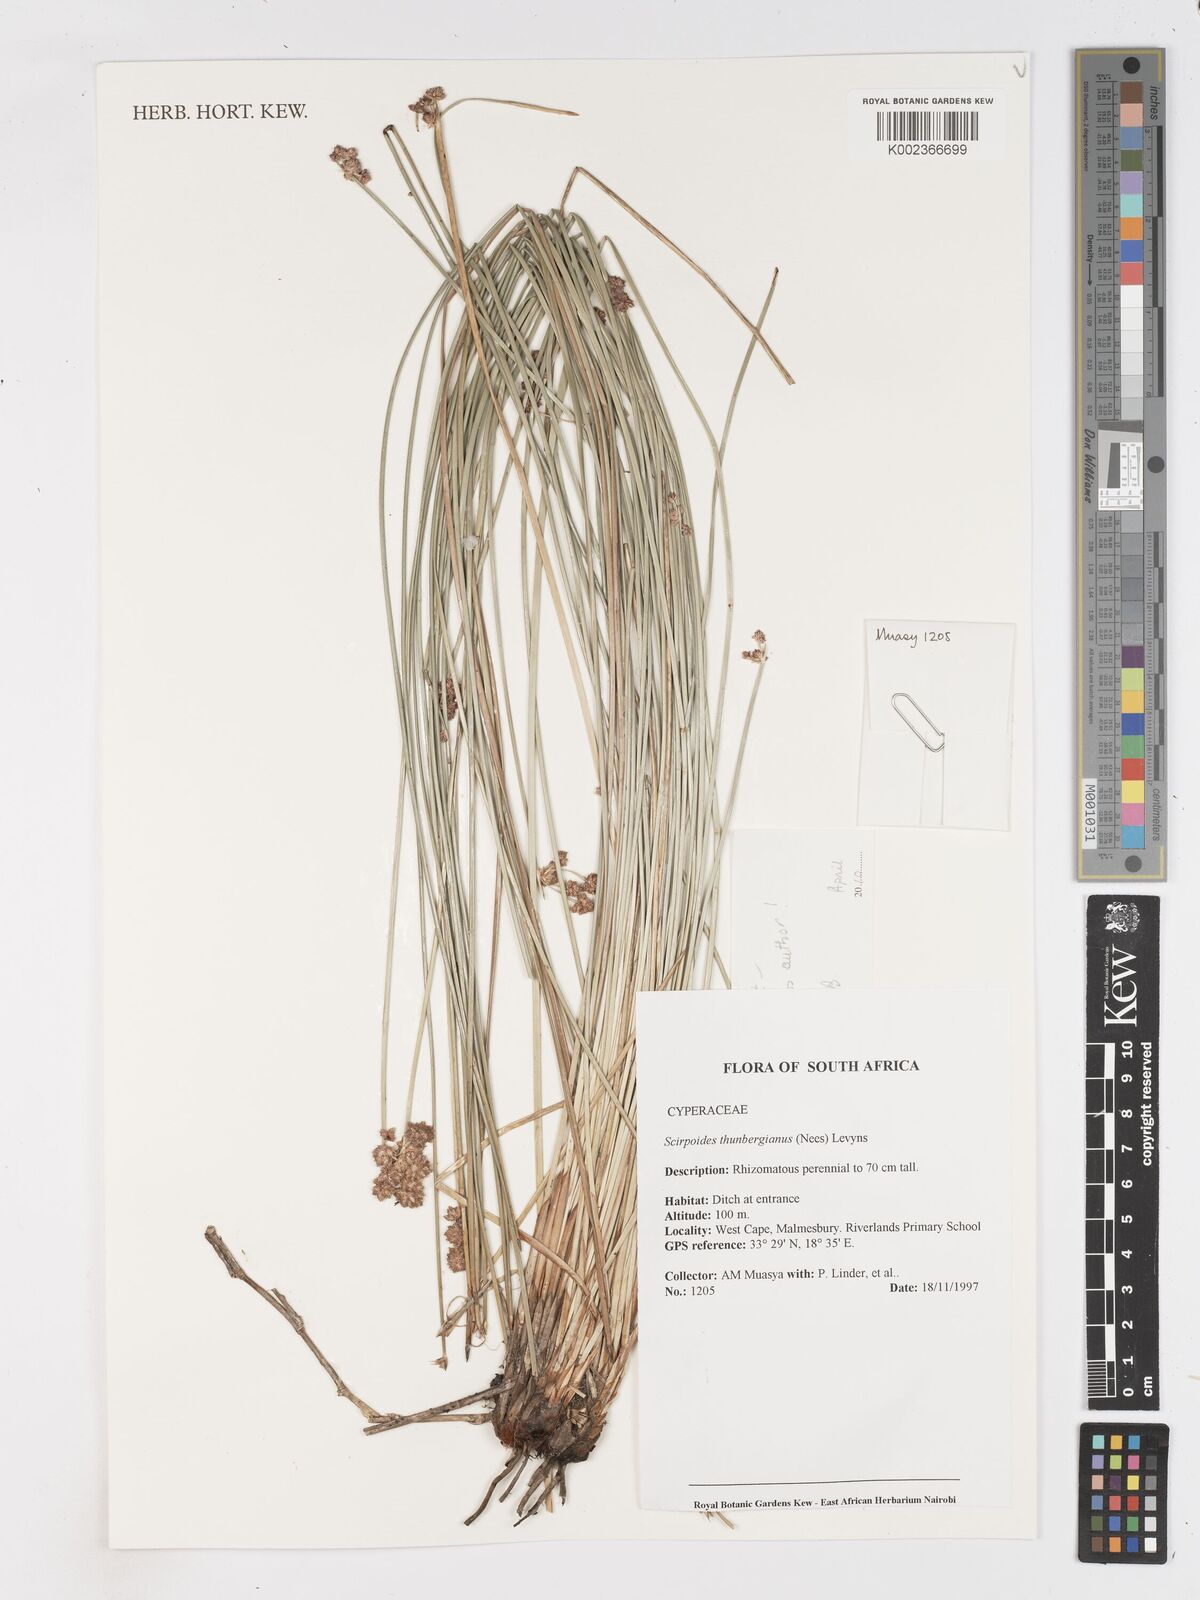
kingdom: Plantae
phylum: Tracheophyta
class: Liliopsida
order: Poales
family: Cyperaceae
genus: Scirpoides
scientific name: Scirpoides holoschoenus
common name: Round-headed club-rush
